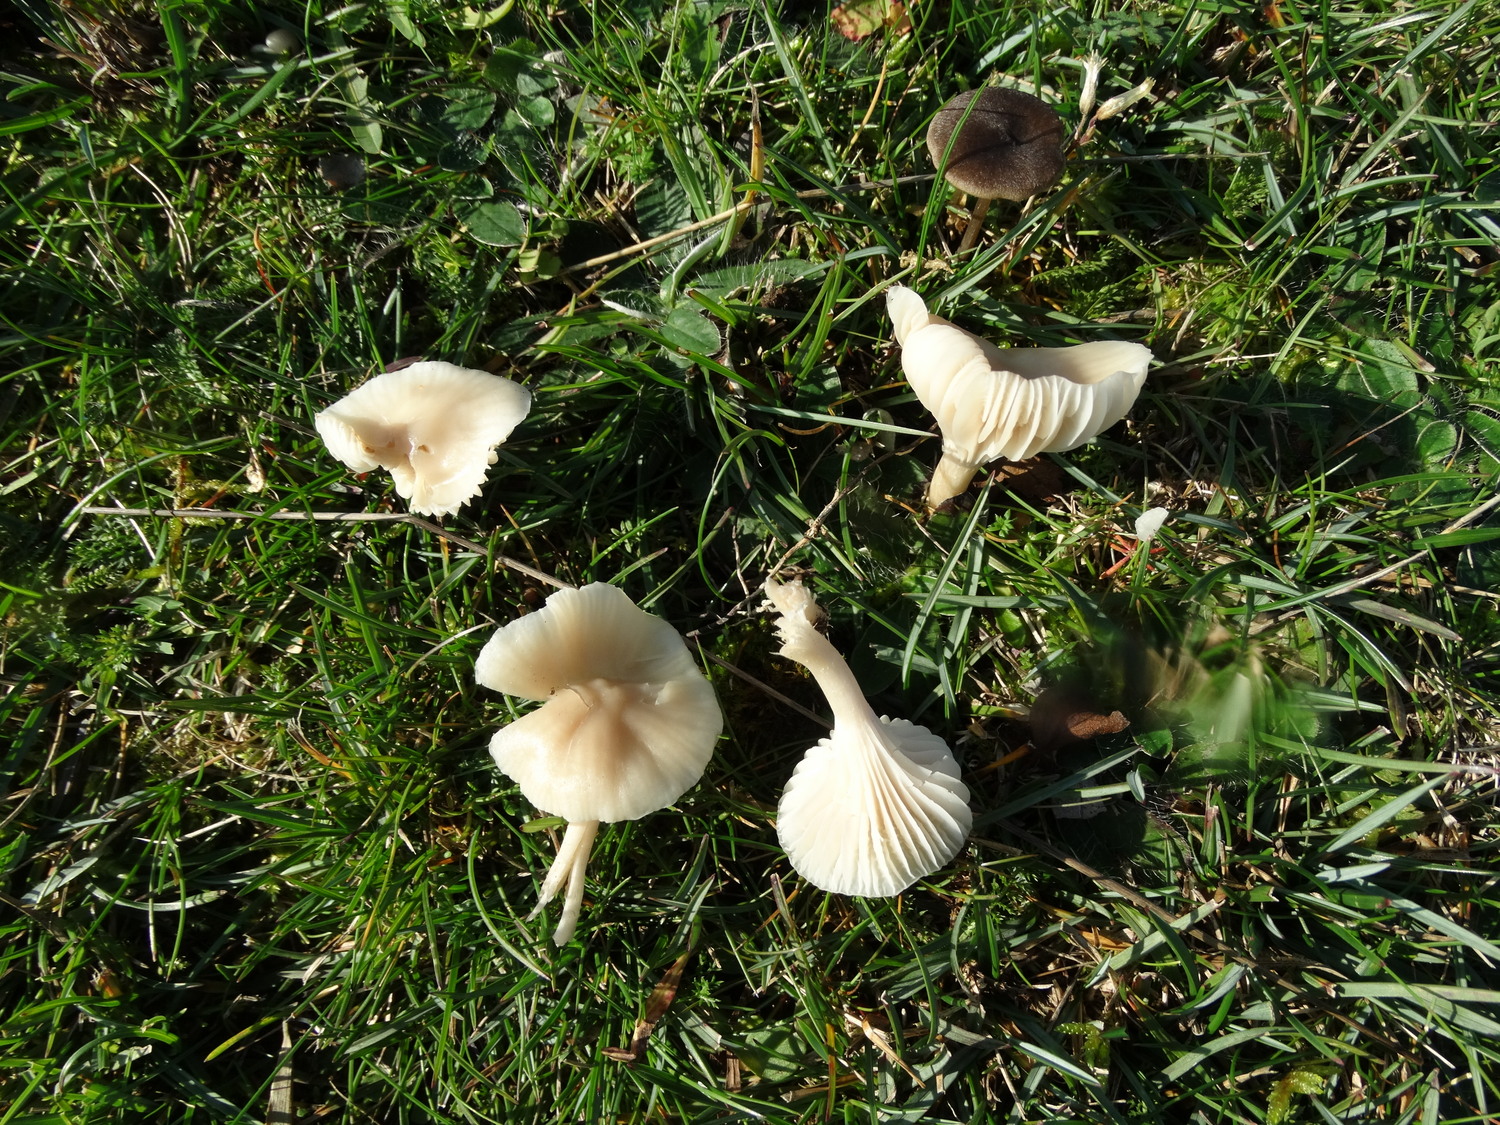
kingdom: Fungi
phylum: Basidiomycota
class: Agaricomycetes
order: Agaricales
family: Hygrophoraceae
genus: Cuphophyllus
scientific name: Cuphophyllus virgineus
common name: snehvid vokshat
